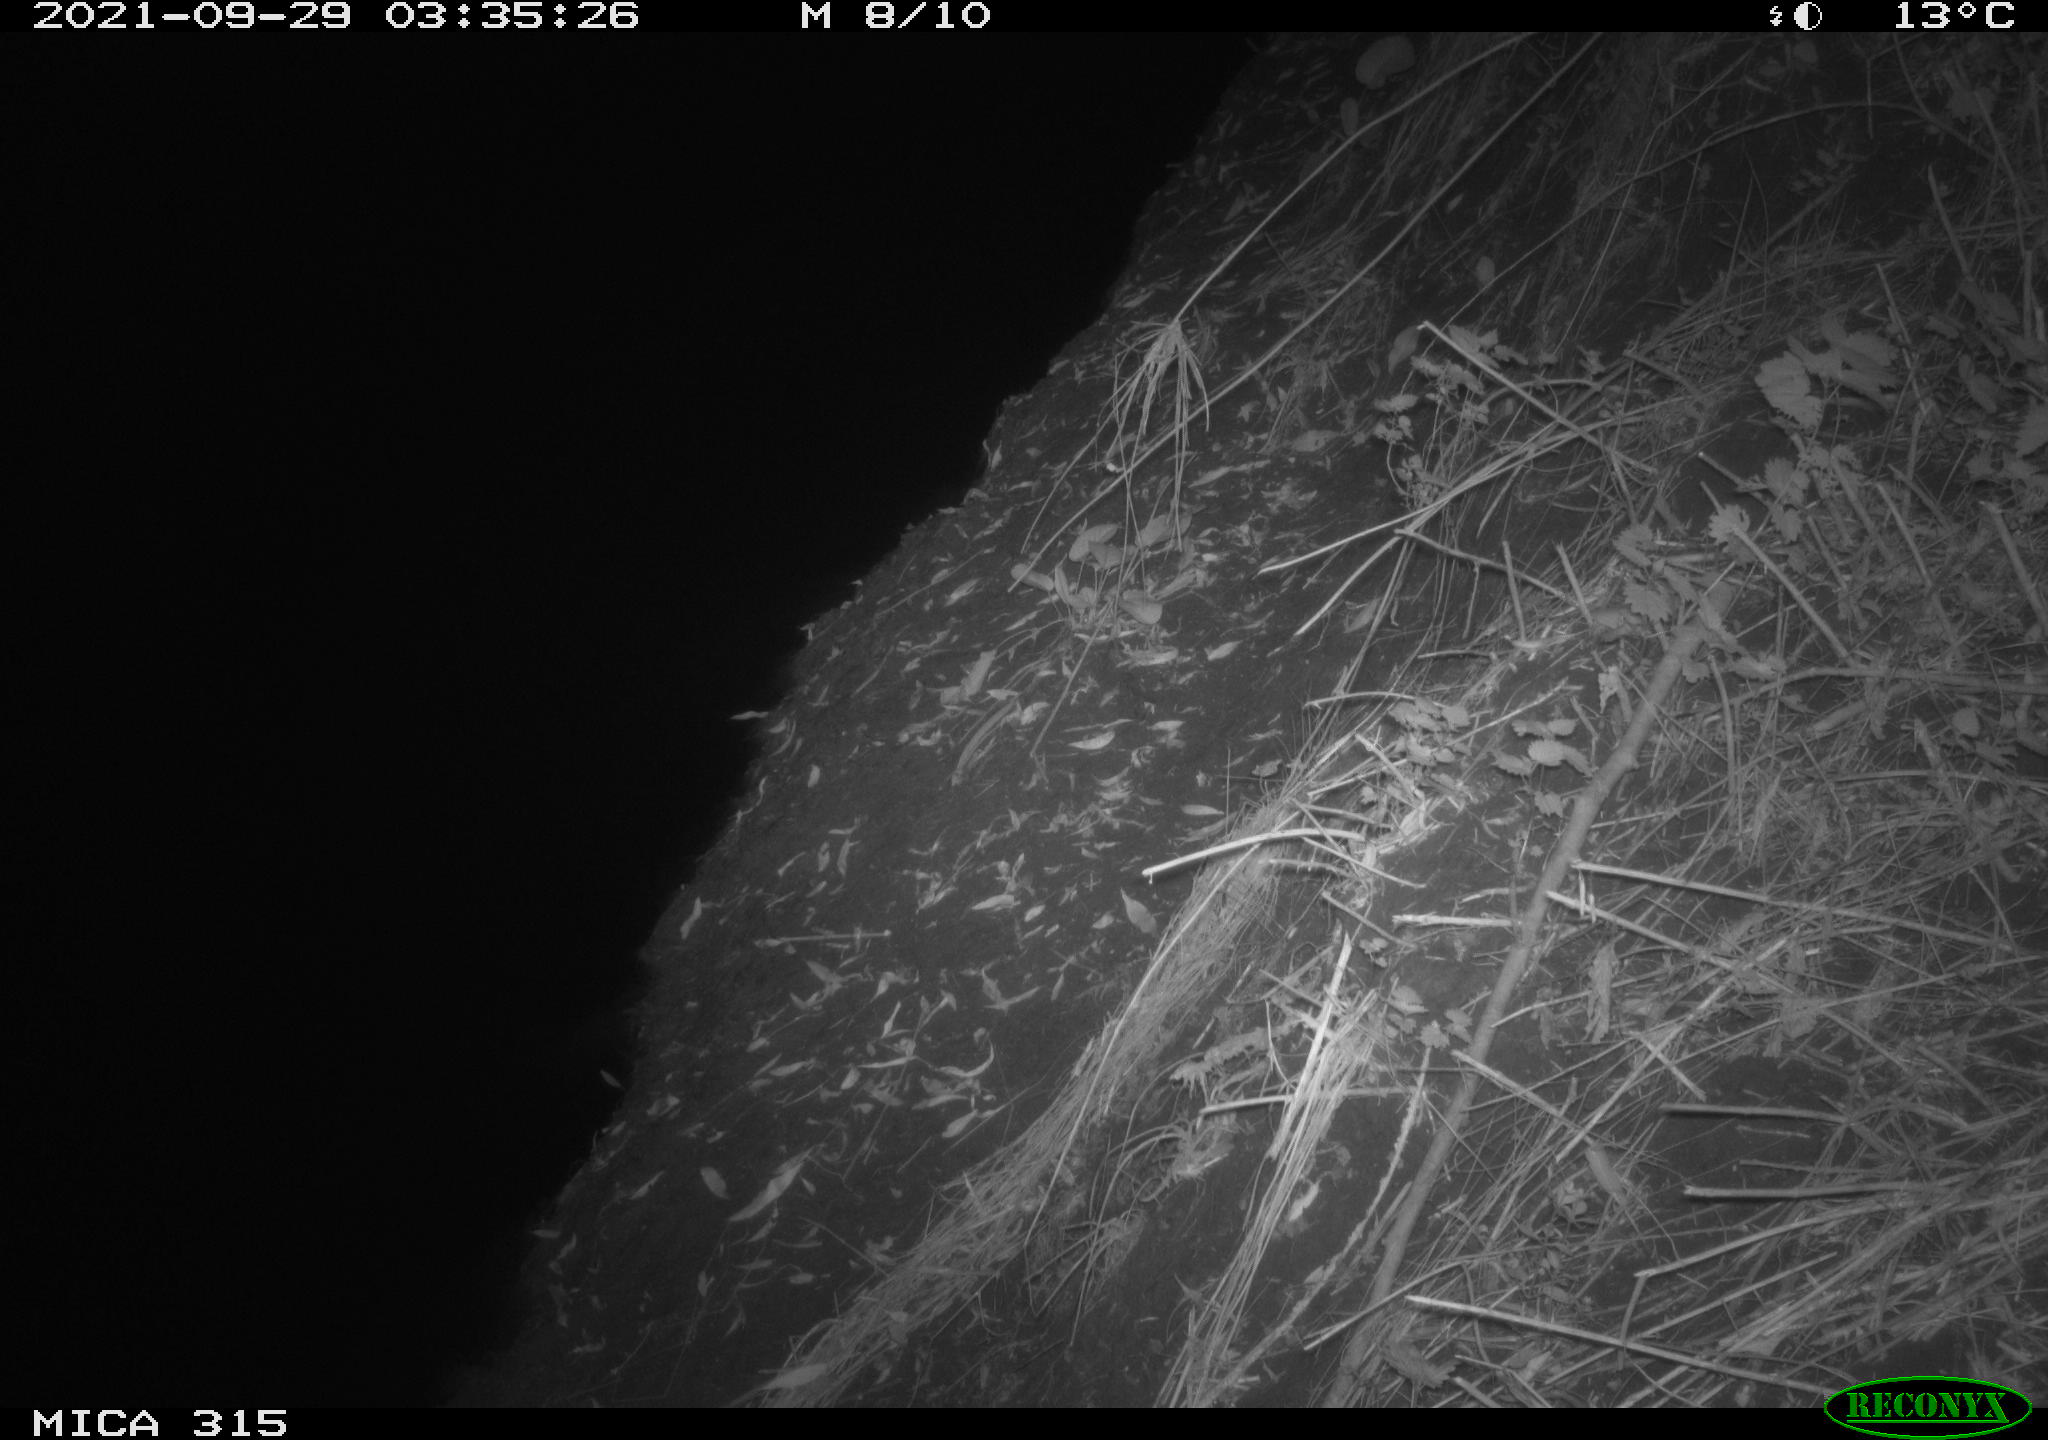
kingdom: Animalia
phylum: Chordata
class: Mammalia
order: Rodentia
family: Muridae
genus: Rattus
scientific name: Rattus norvegicus
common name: Brown rat
